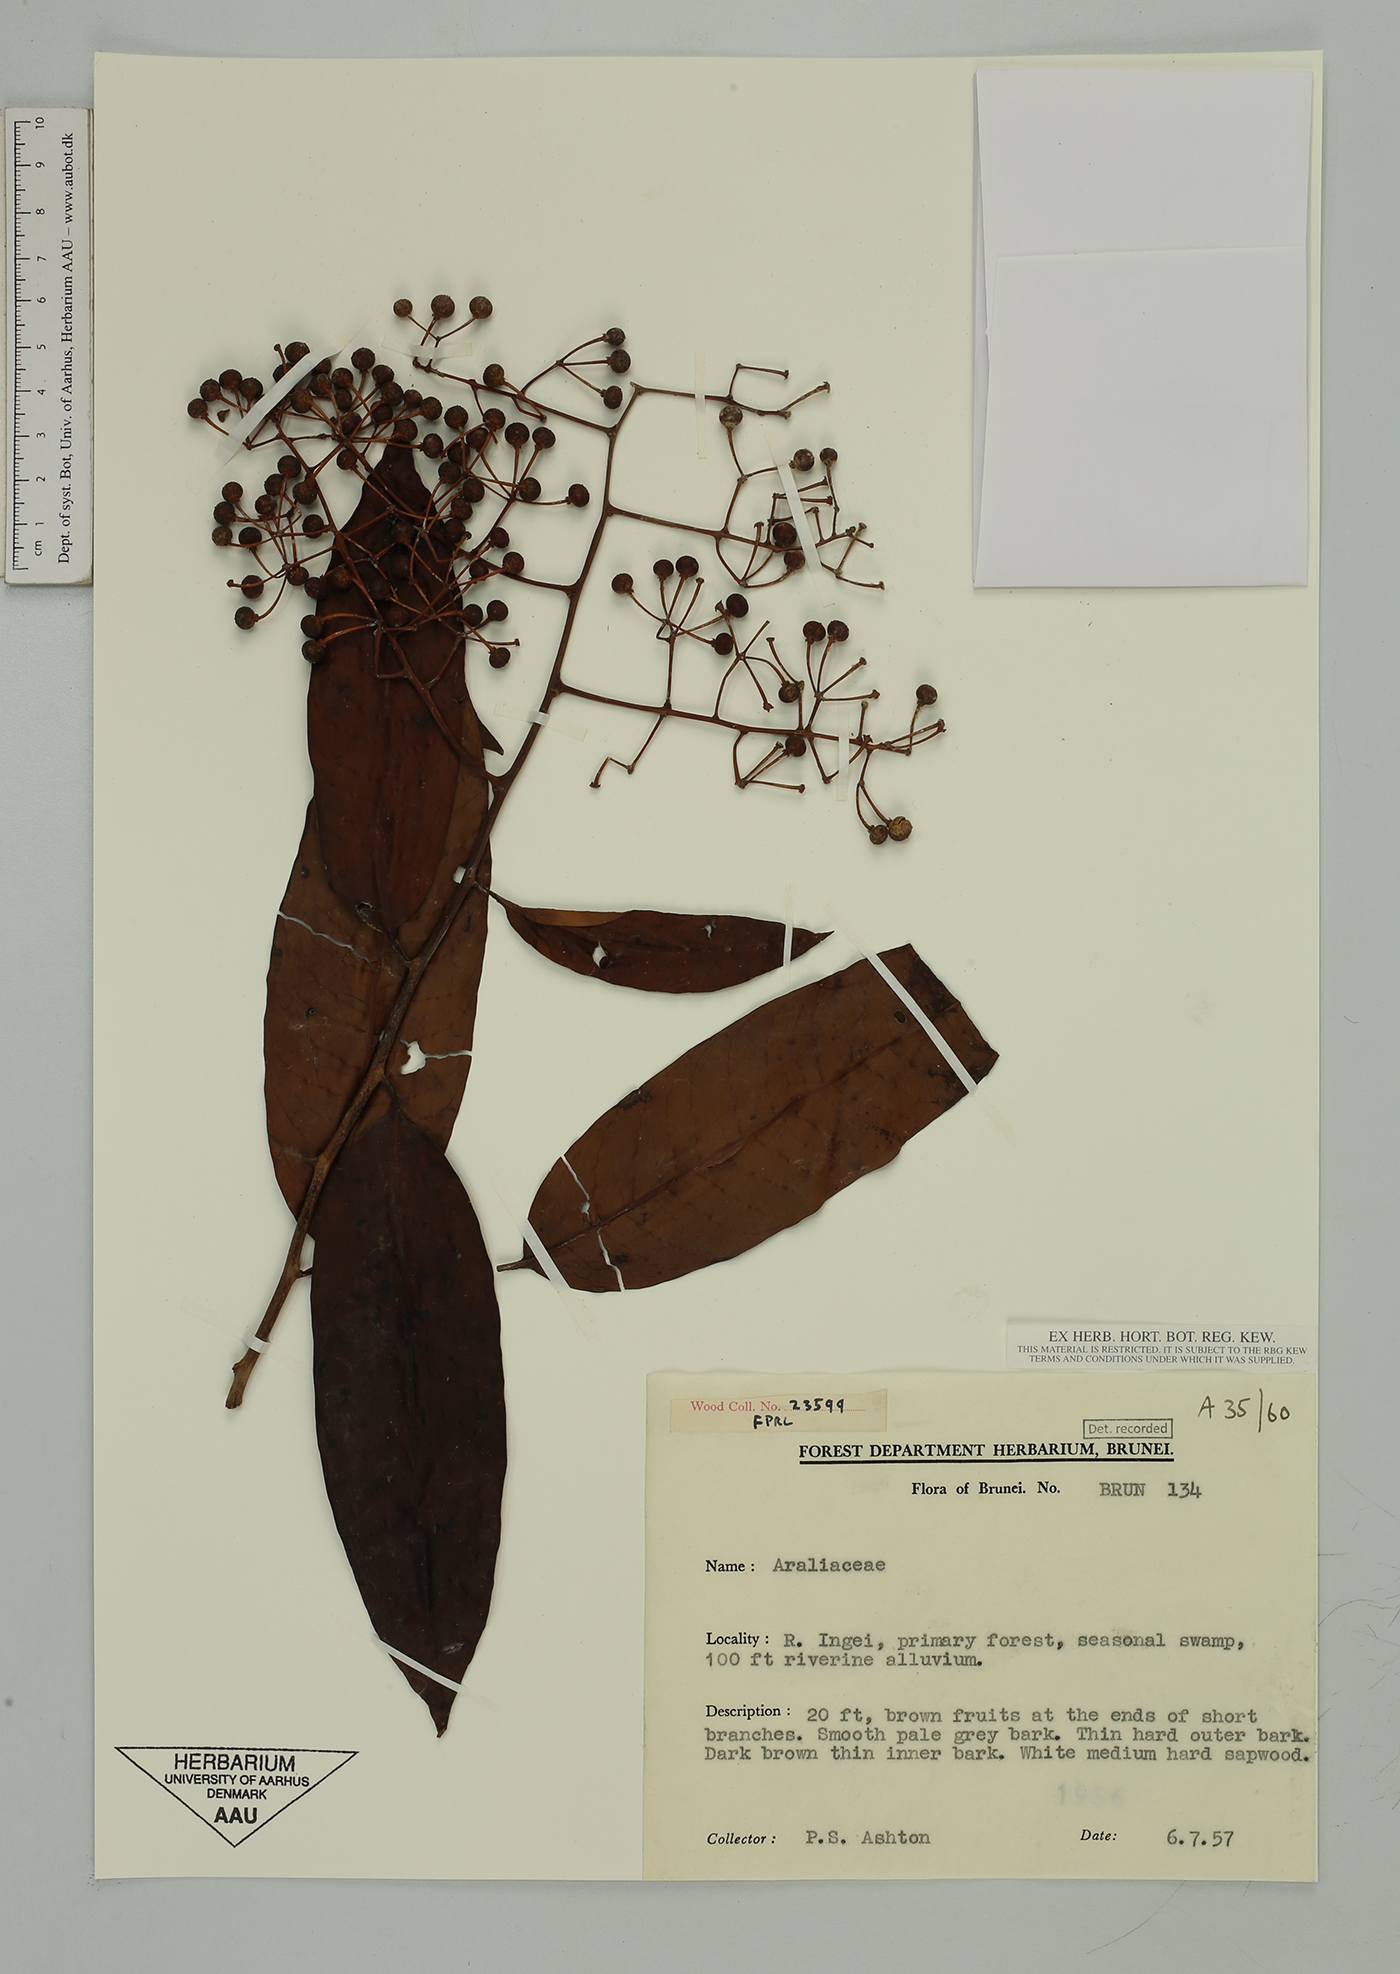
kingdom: Plantae
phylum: Tracheophyta
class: Magnoliopsida
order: Apiales
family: Araliaceae
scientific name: Araliaceae
